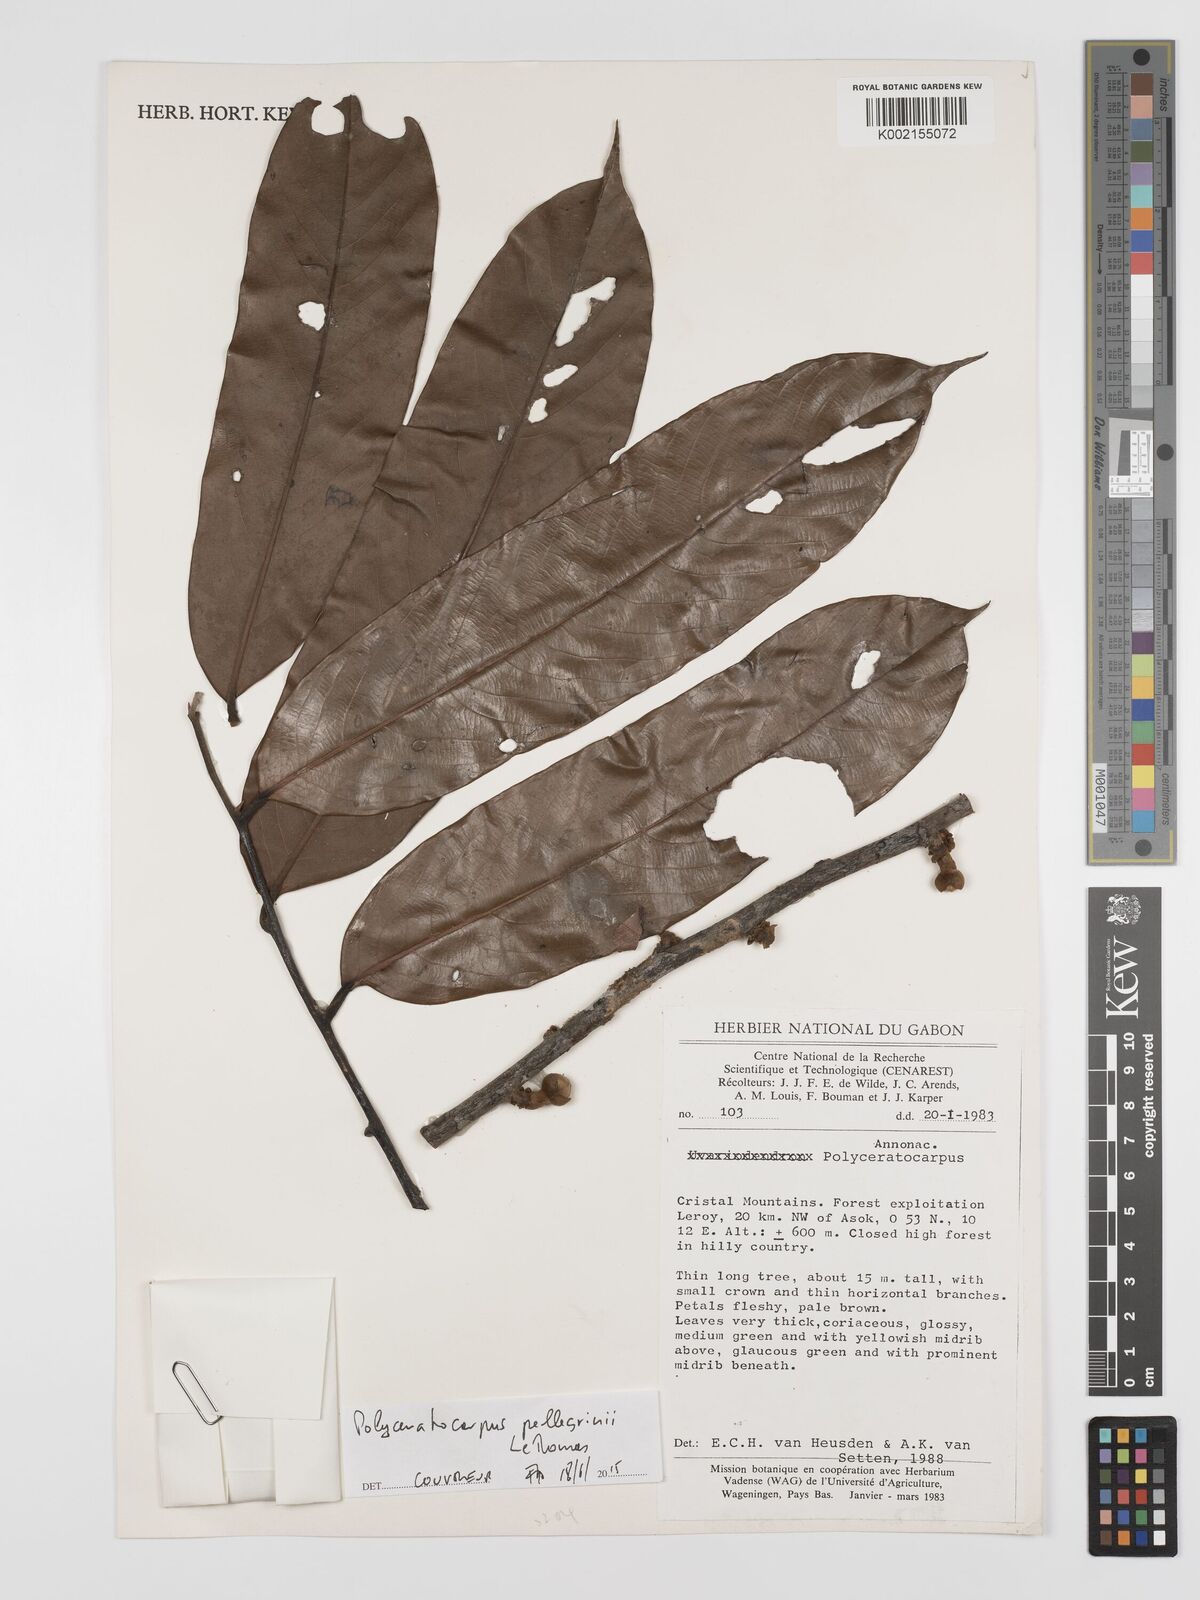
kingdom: Plantae
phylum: Tracheophyta
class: Magnoliopsida
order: Magnoliales
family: Annonaceae
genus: Polyceratocarpus
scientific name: Polyceratocarpus pellegrinii
